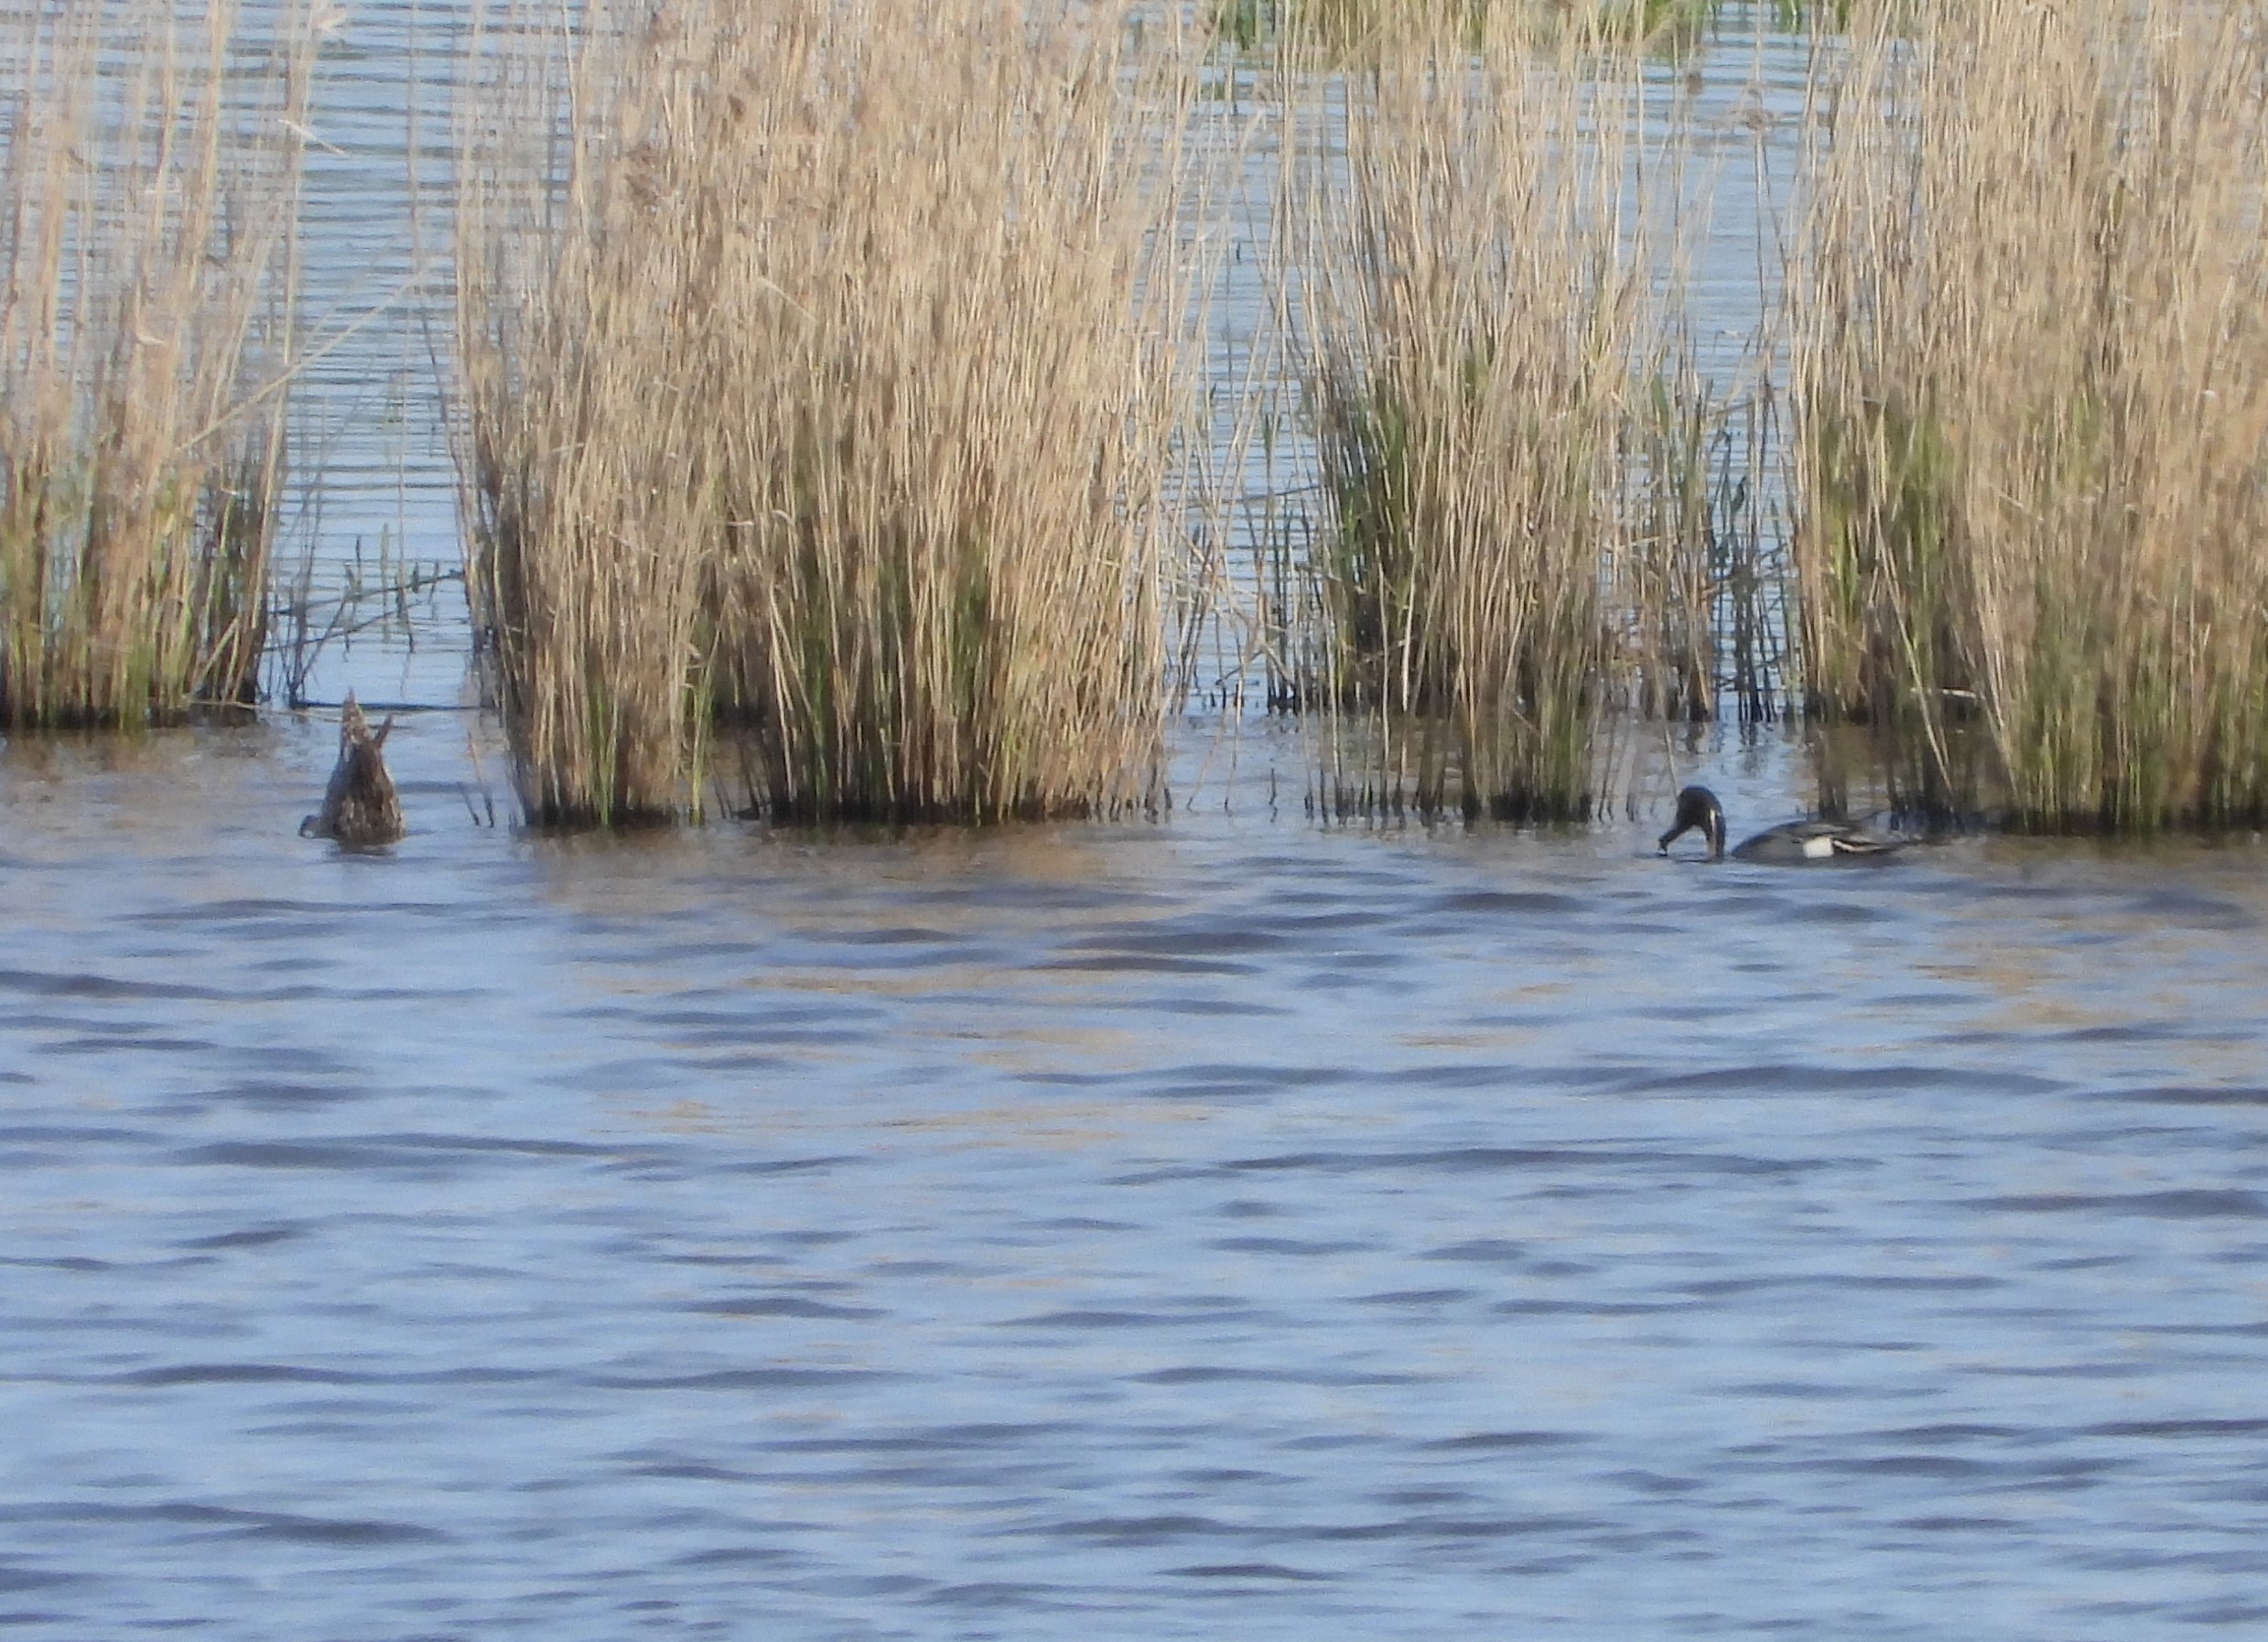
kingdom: Animalia
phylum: Chordata
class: Aves
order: Anseriformes
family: Anatidae
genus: Anas
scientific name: Anas acuta
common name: Spidsand
